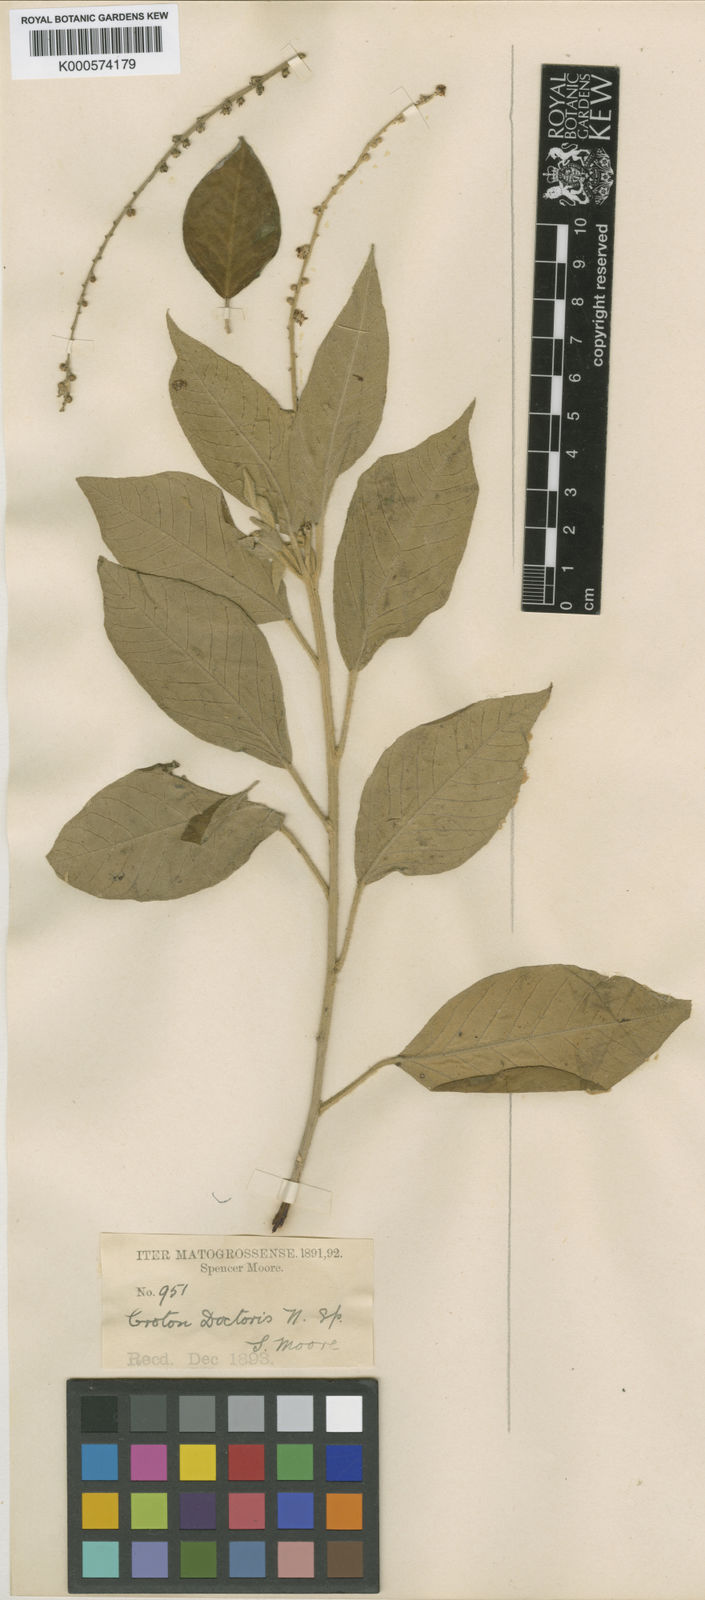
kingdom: Plantae
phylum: Tracheophyta
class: Magnoliopsida
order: Malpighiales
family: Euphorbiaceae
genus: Croton
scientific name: Croton doctoris
